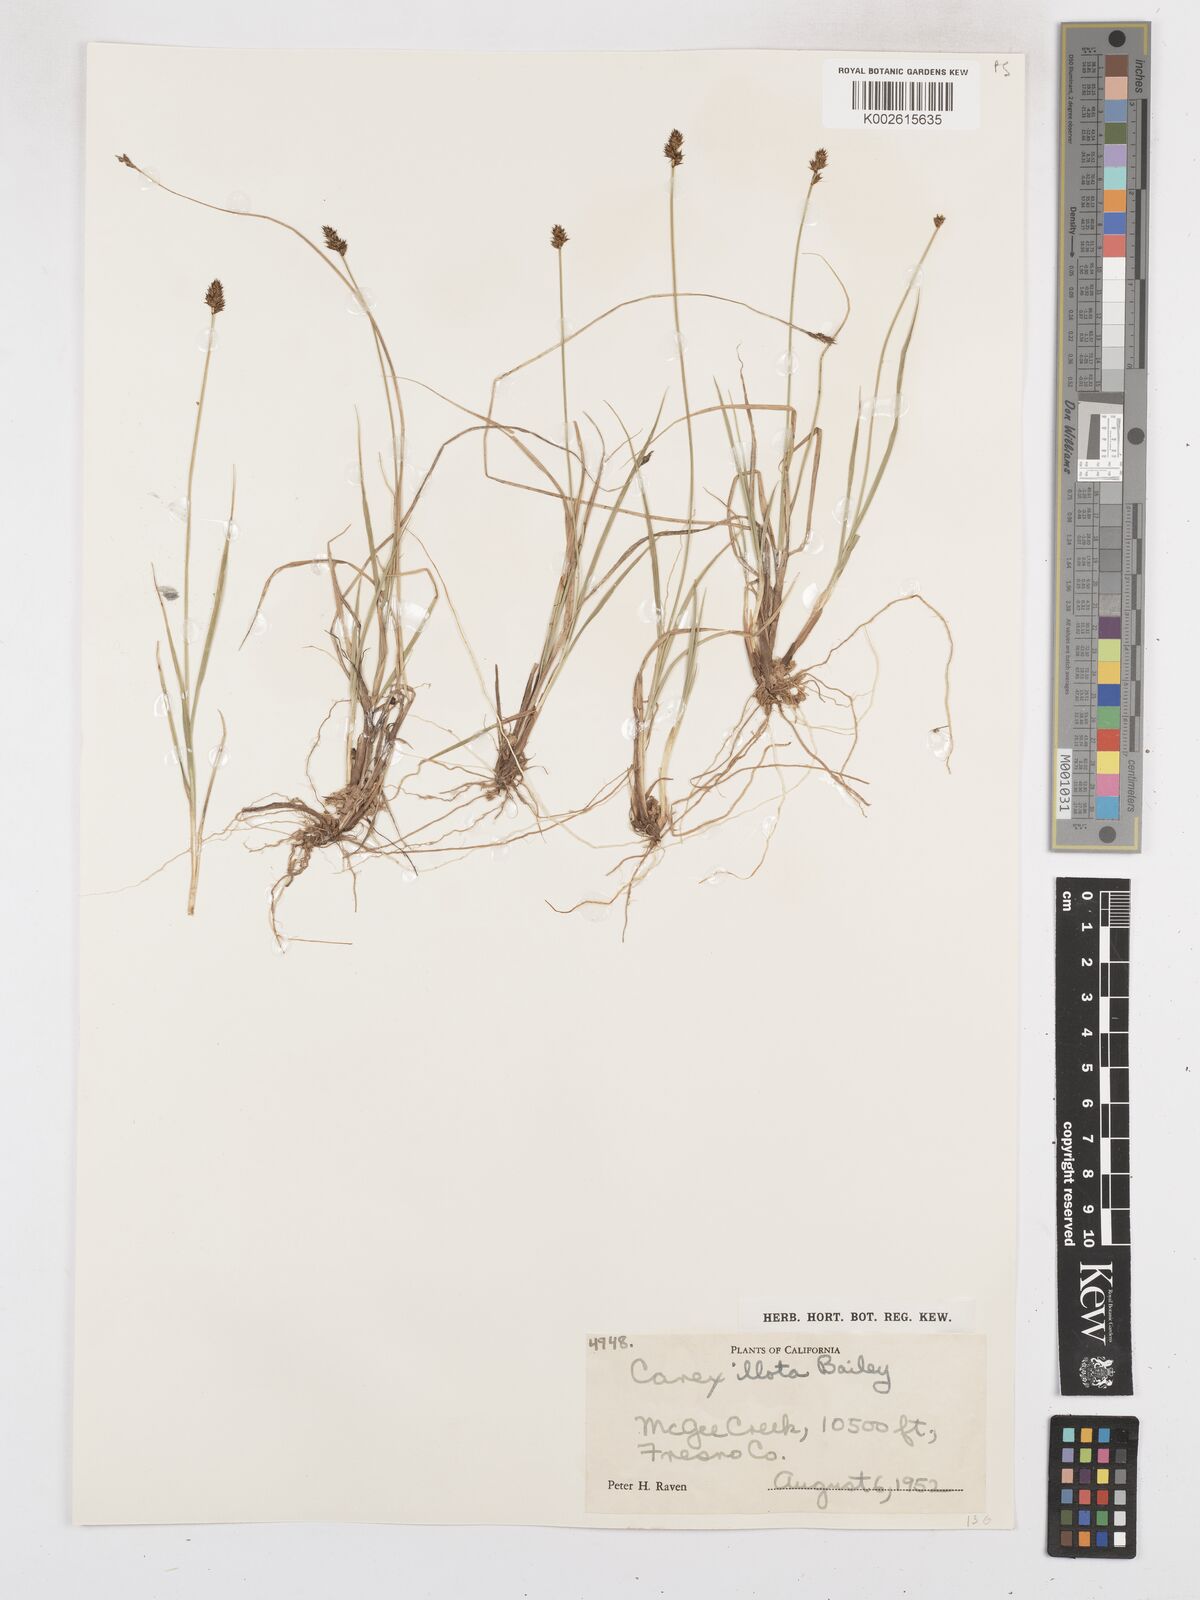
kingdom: Plantae
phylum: Tracheophyta
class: Liliopsida
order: Poales
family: Cyperaceae
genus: Carex
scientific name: Carex illota
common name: Sheep sedge
